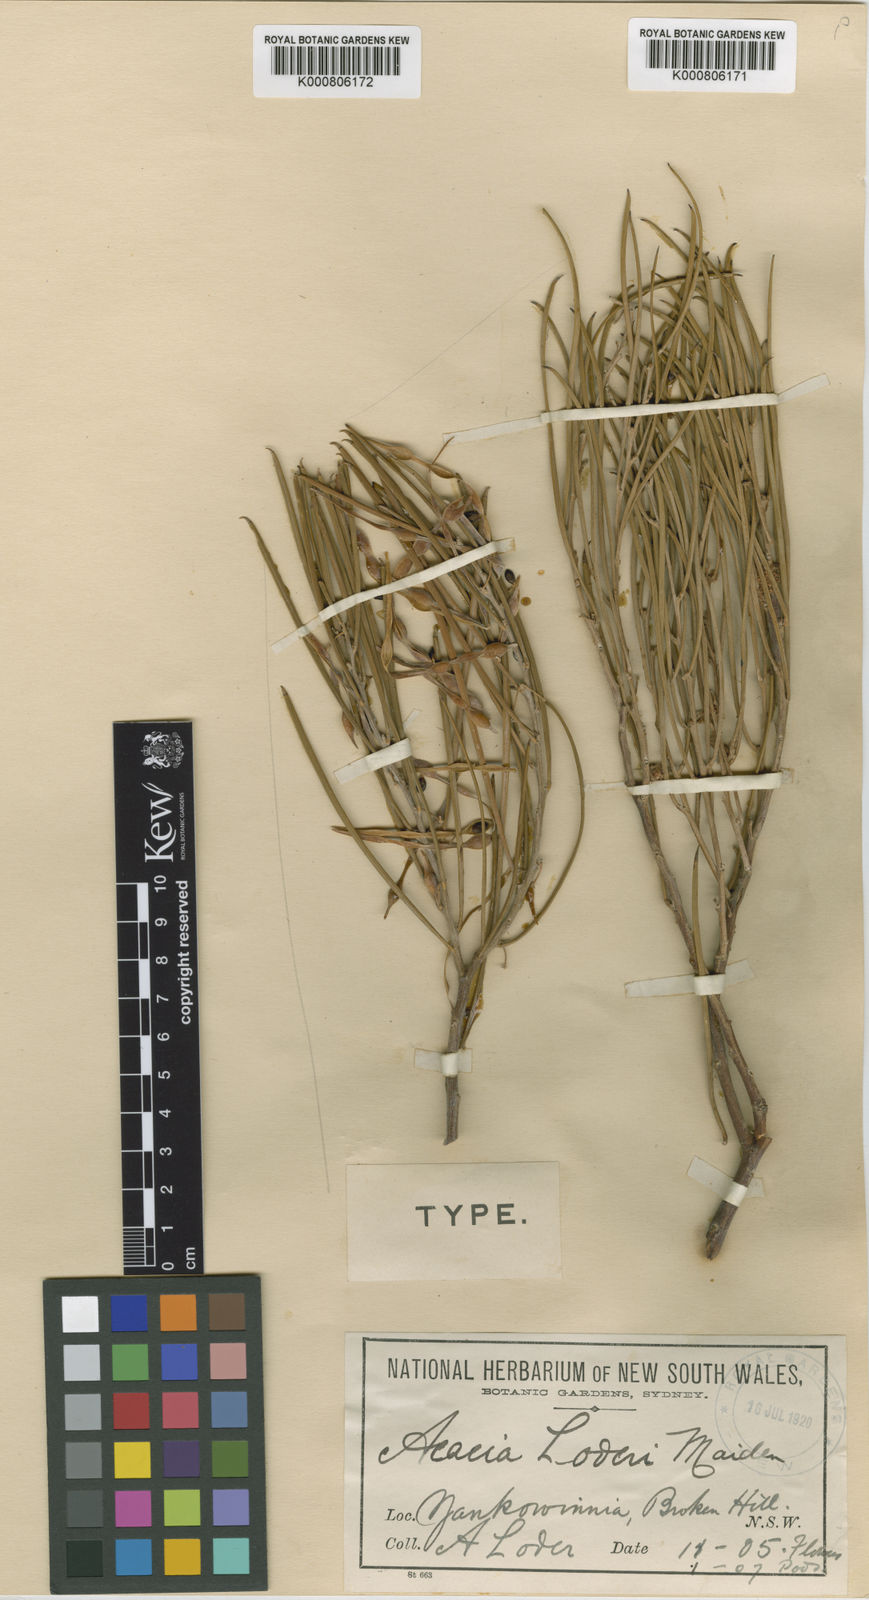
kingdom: Plantae
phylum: Tracheophyta
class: Magnoliopsida
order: Fabales
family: Fabaceae
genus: Acacia
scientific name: Acacia loderi
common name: Broken hill gidgee
